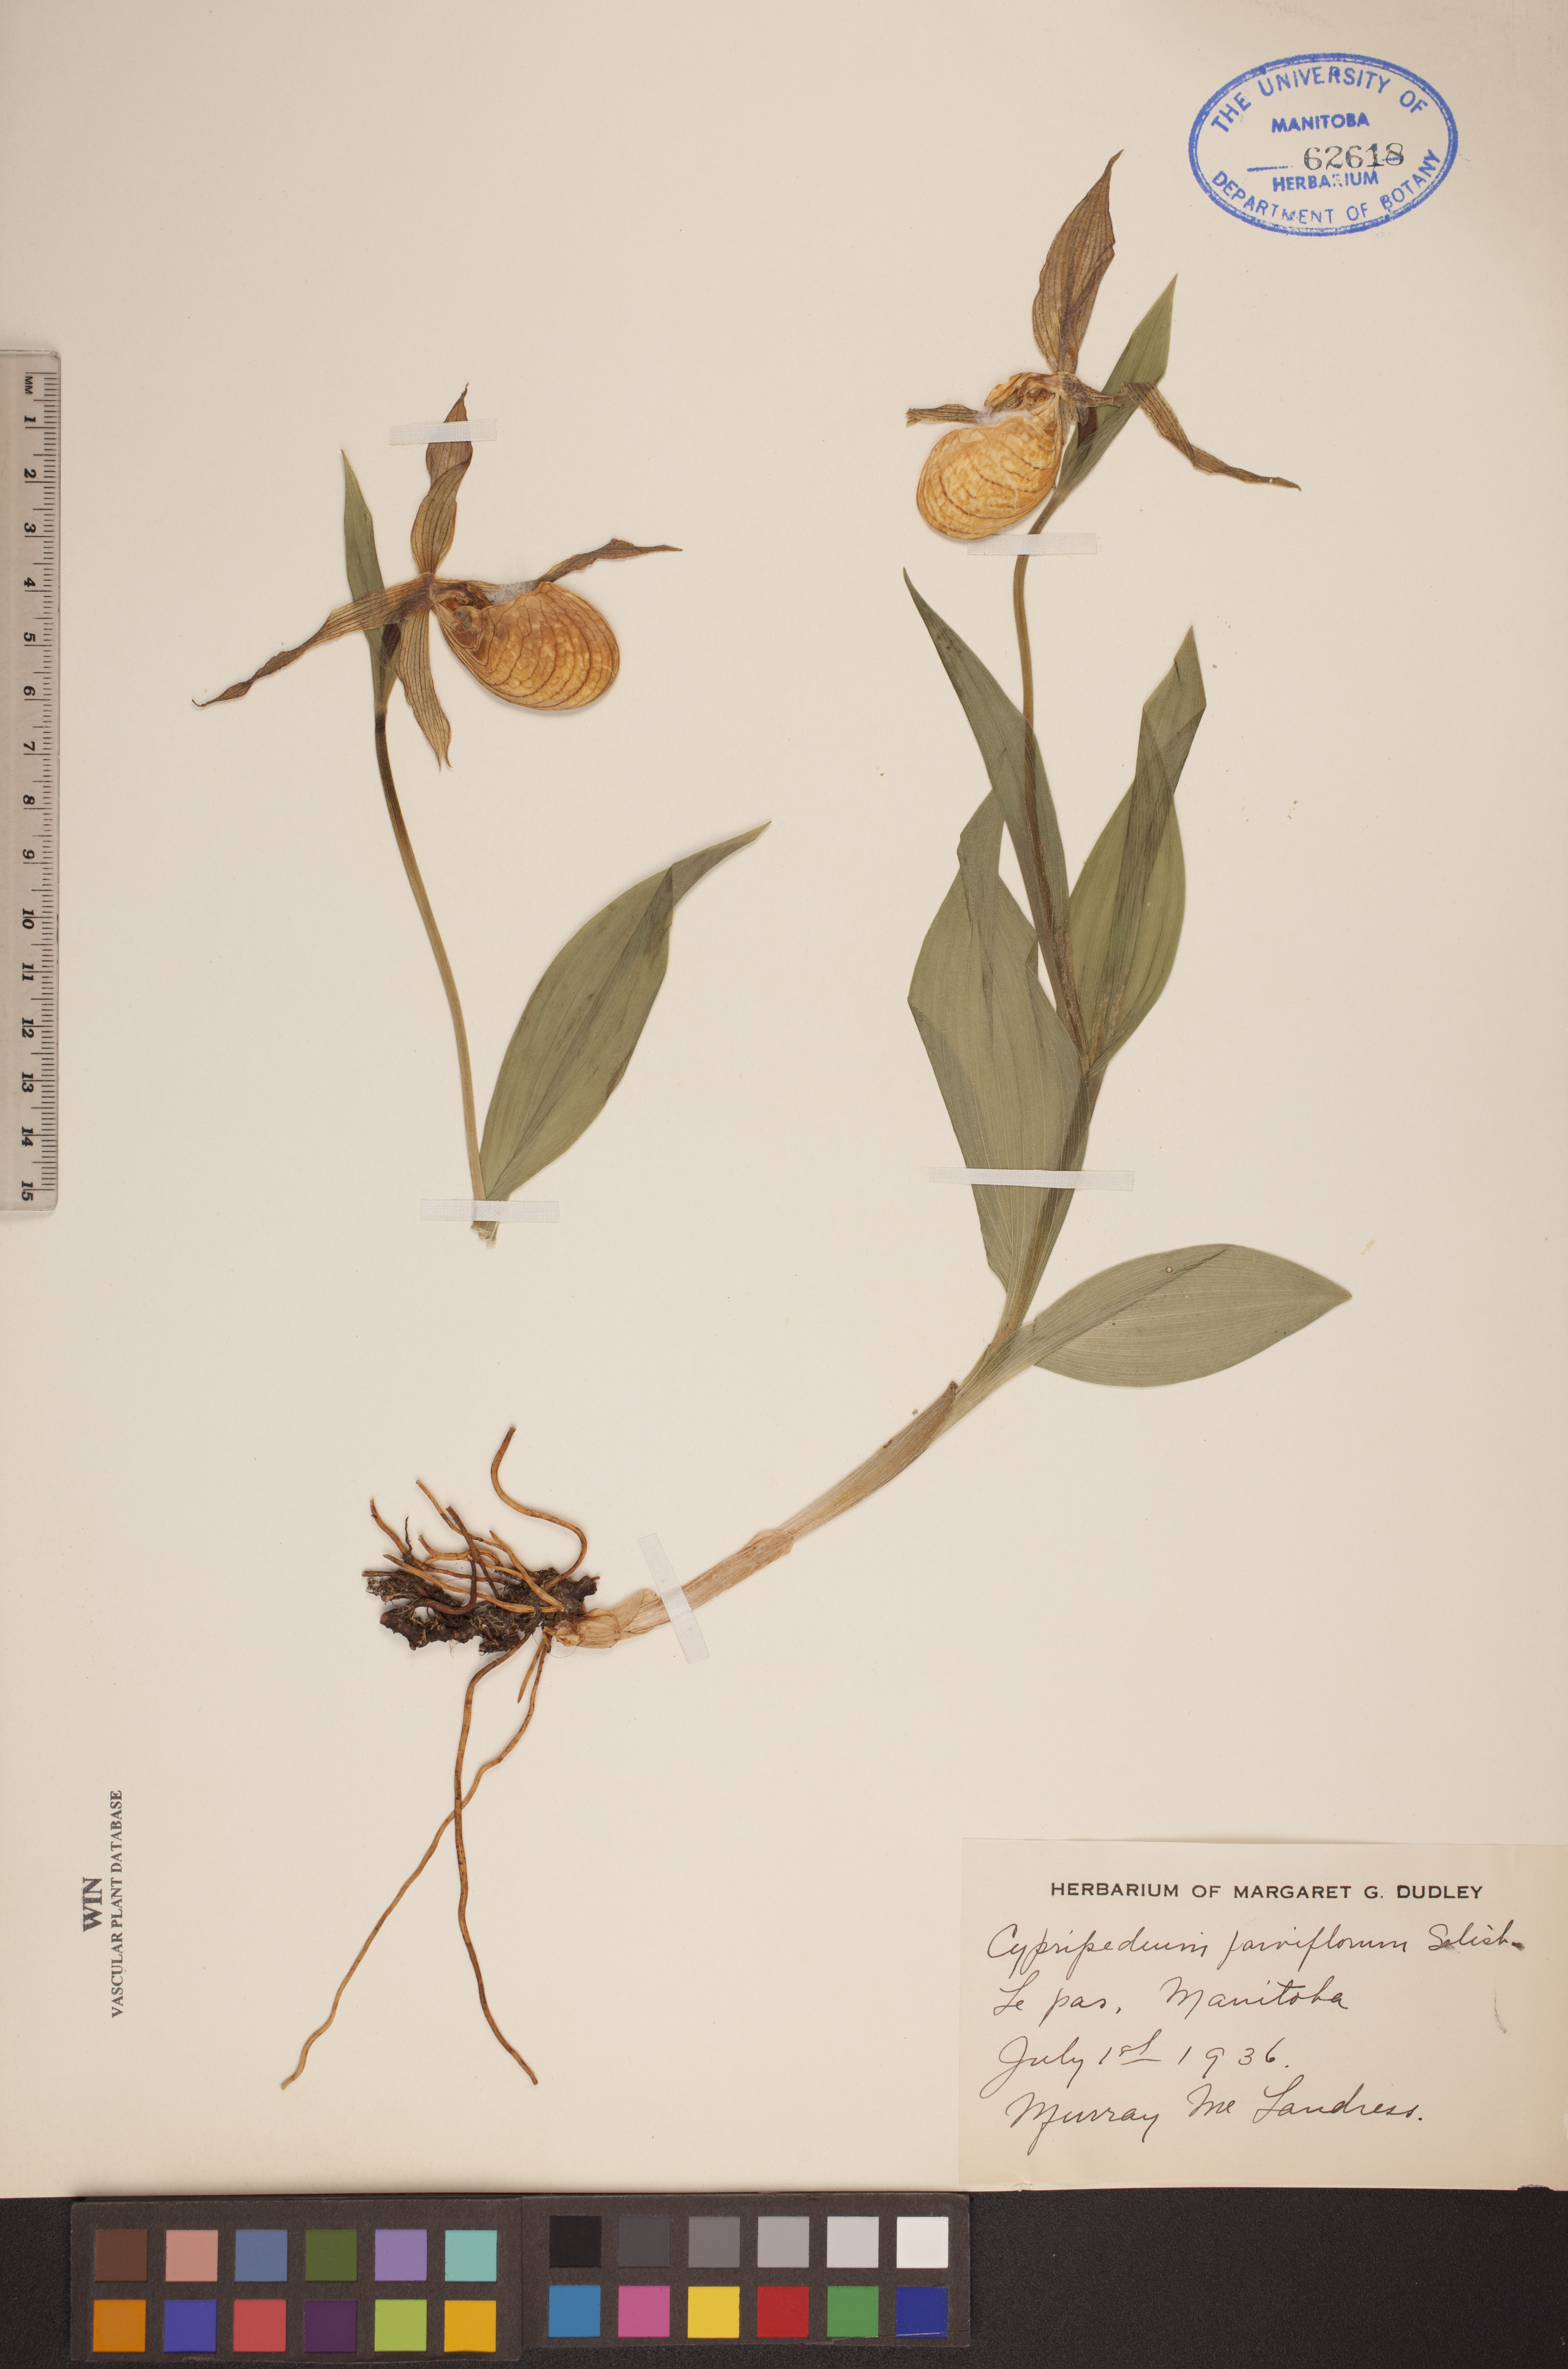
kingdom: Plantae
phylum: Tracheophyta
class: Liliopsida
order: Asparagales
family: Orchidaceae
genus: Cypripedium
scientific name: Cypripedium parviflorum
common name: American yellow lady's-slipper
